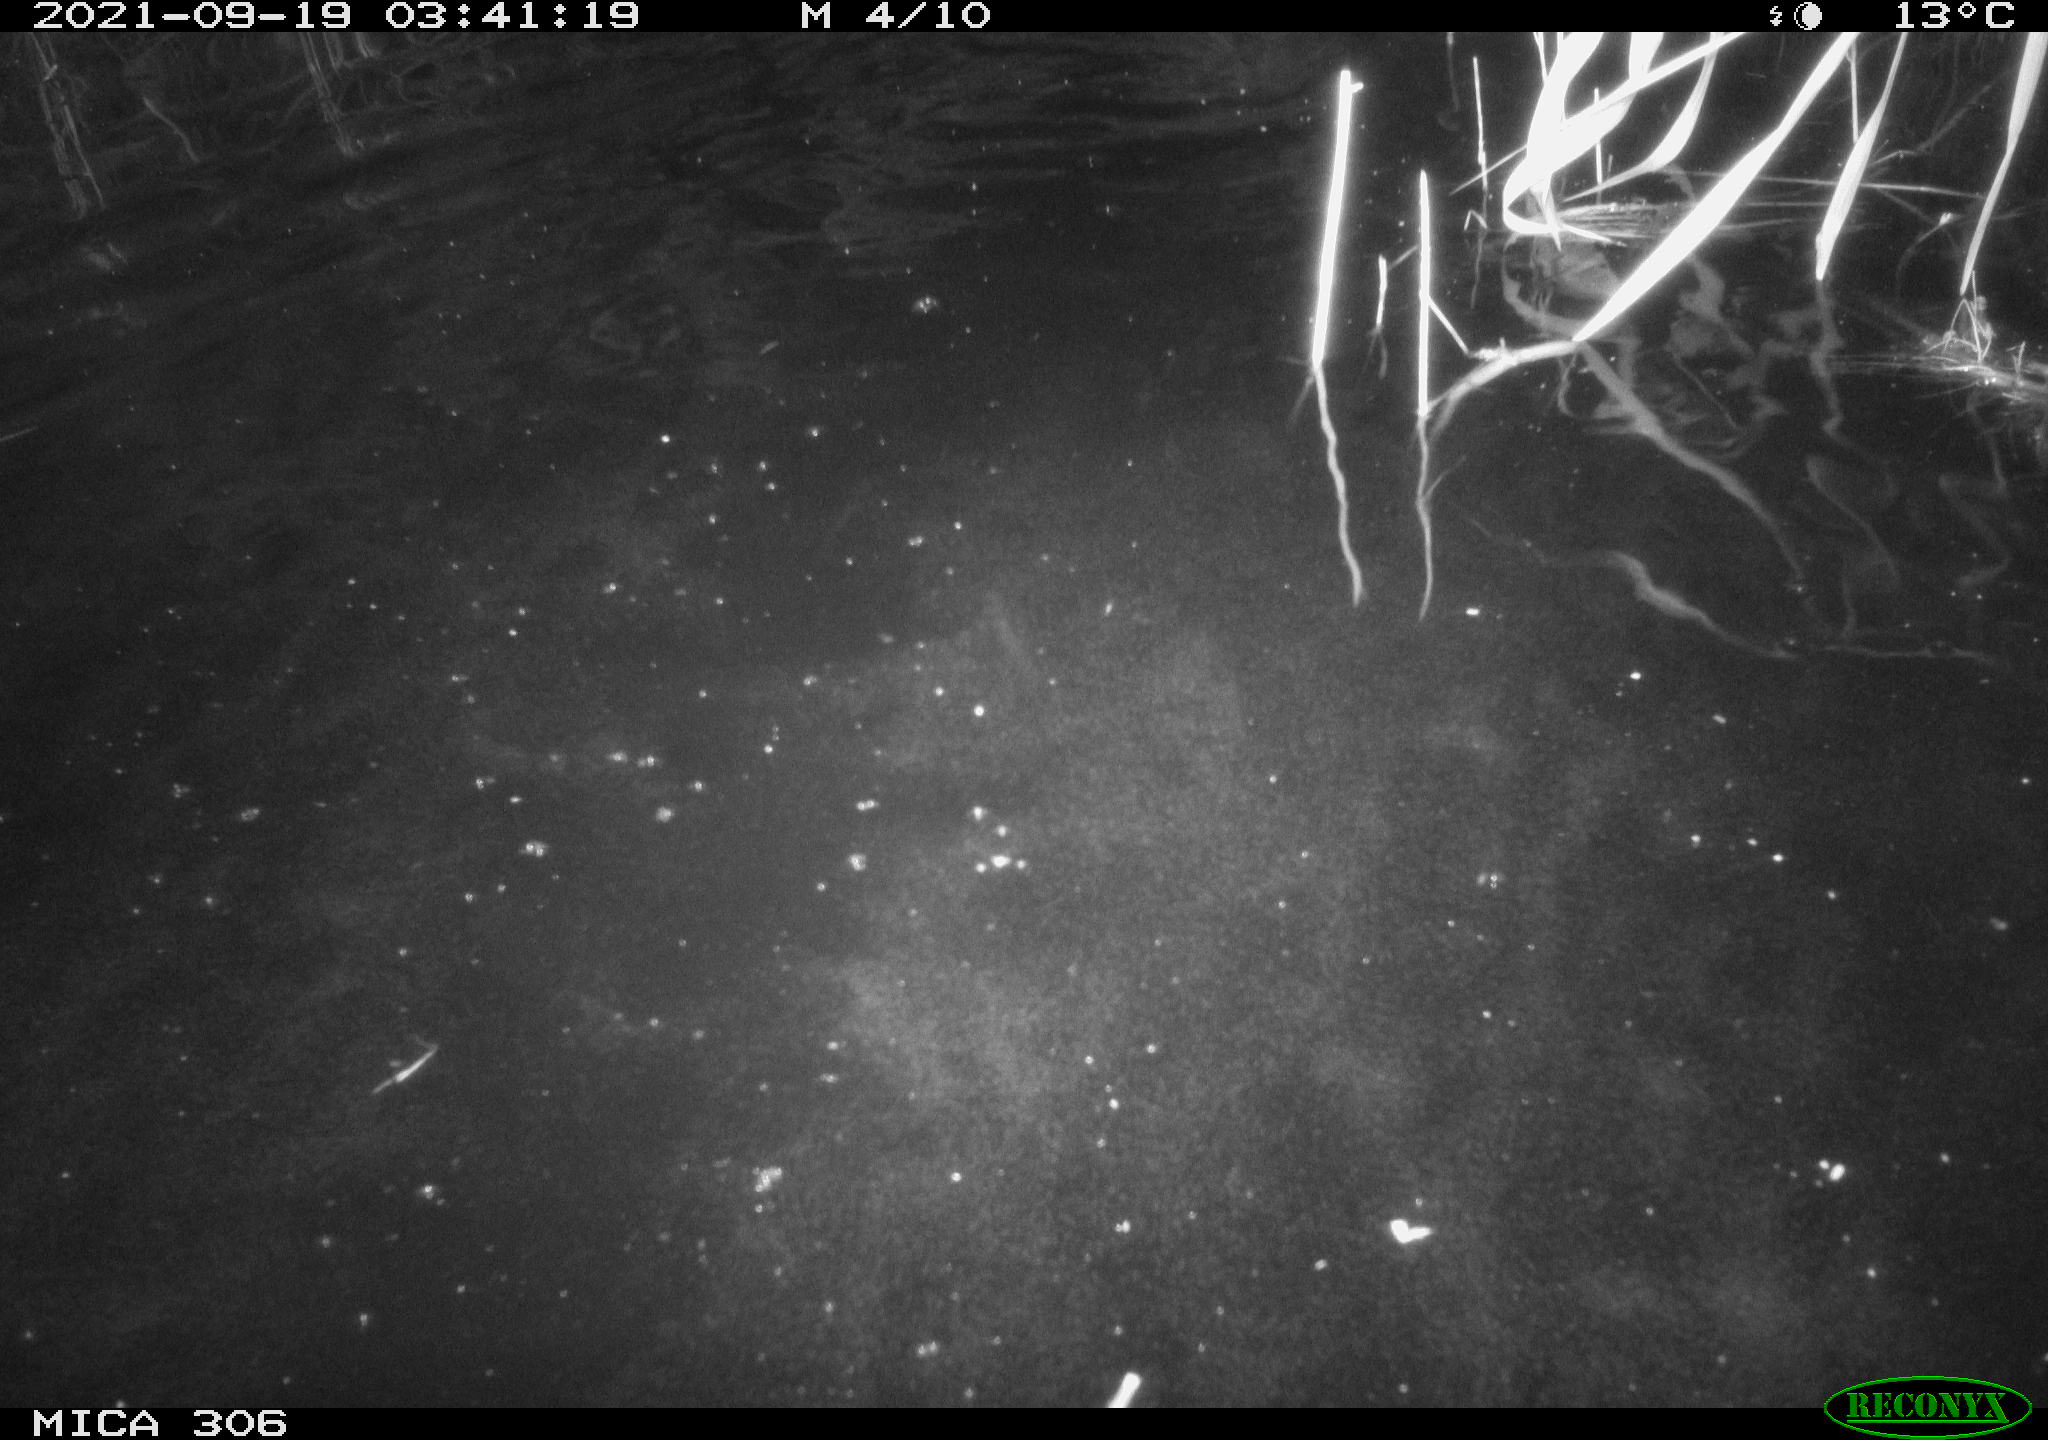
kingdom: Animalia
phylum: Chordata
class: Mammalia
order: Rodentia
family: Cricetidae
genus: Ondatra
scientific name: Ondatra zibethicus
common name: Muskrat
